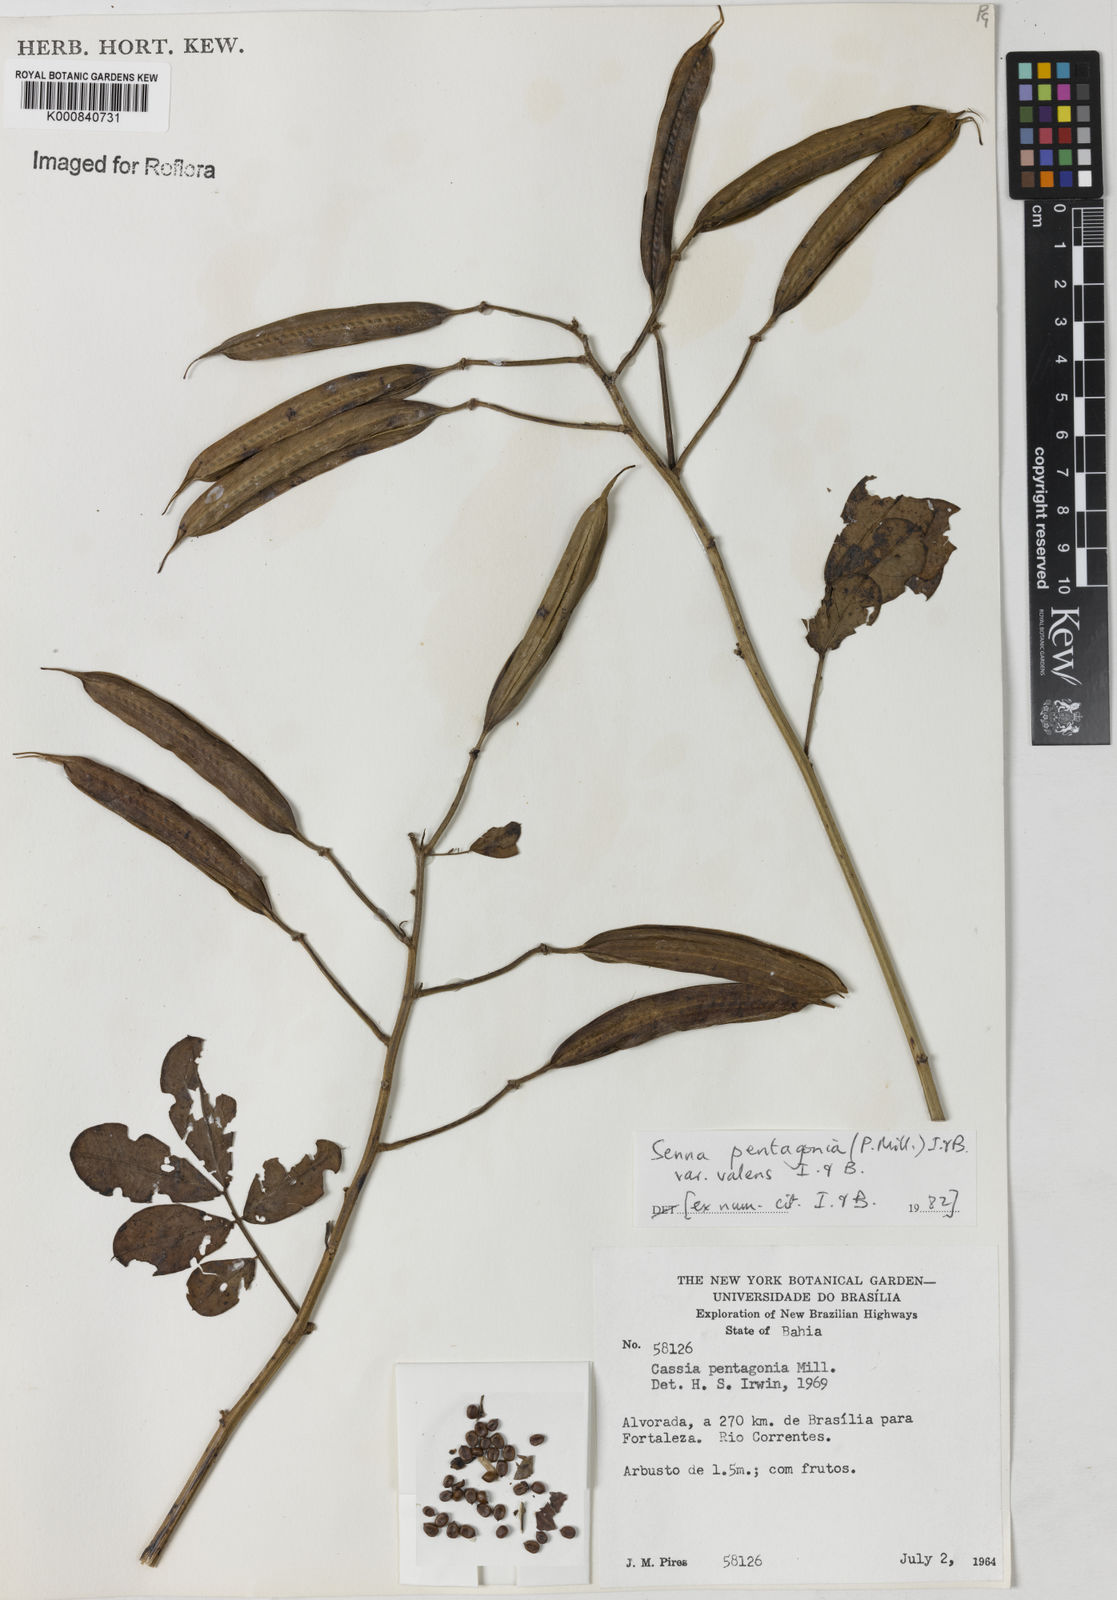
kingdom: Plantae
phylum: Tracheophyta
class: Magnoliopsida
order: Fabales
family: Fabaceae
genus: Senna
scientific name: Senna pentagonia
